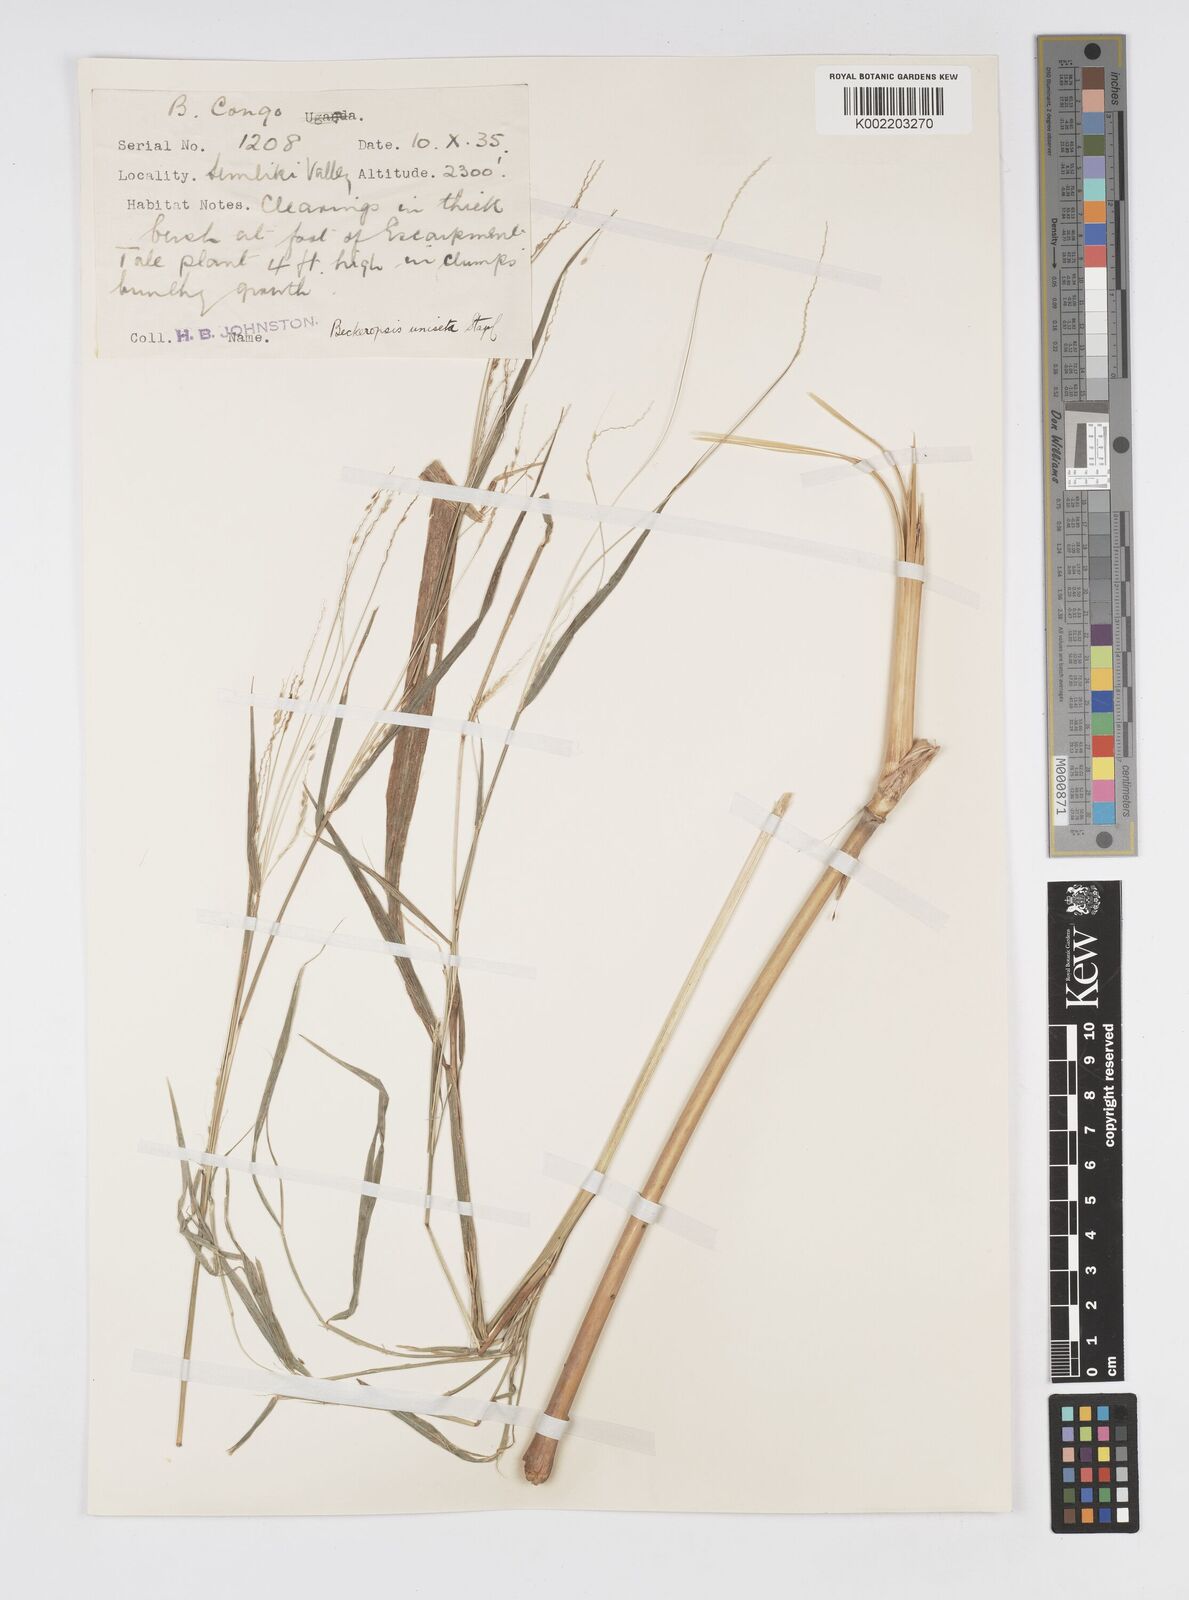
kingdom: Plantae
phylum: Tracheophyta
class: Liliopsida
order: Poales
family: Poaceae
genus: Cenchrus
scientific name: Cenchrus unisetus
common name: Natal grass
